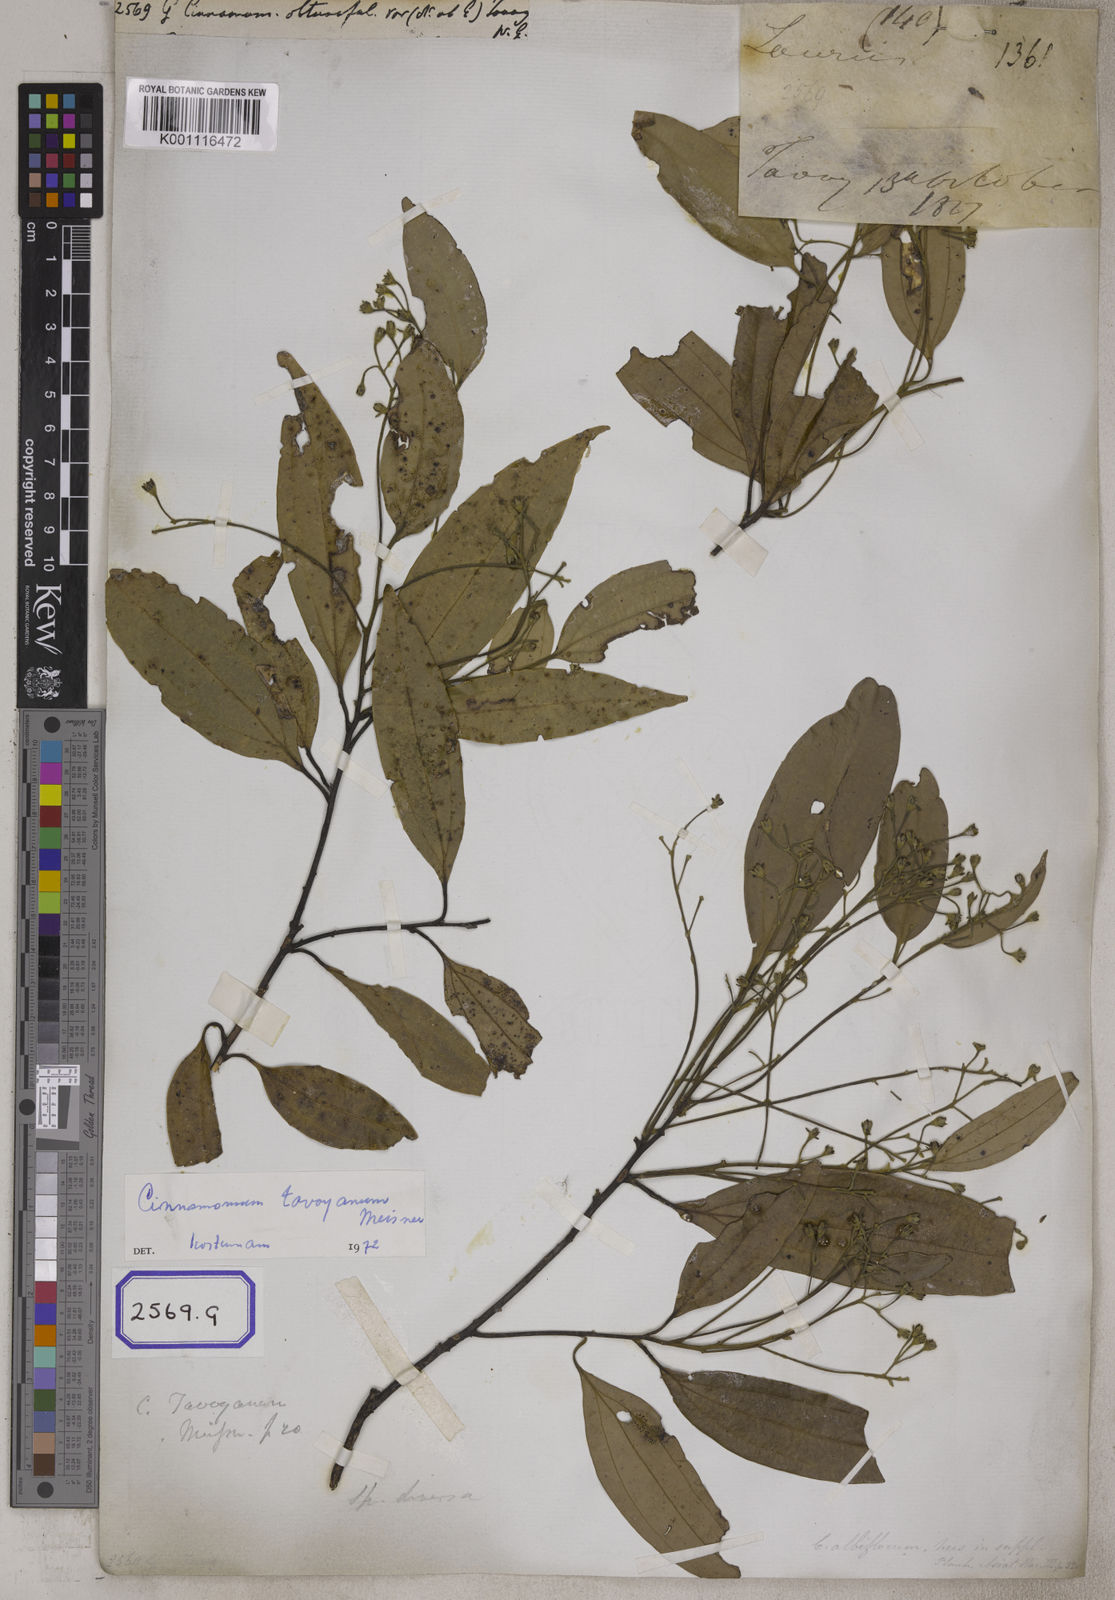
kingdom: Plantae
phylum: Tracheophyta
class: Magnoliopsida
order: Laurales
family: Lauraceae
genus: Cinnamomum
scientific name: Cinnamomum tamala
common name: Indian bay leaves
